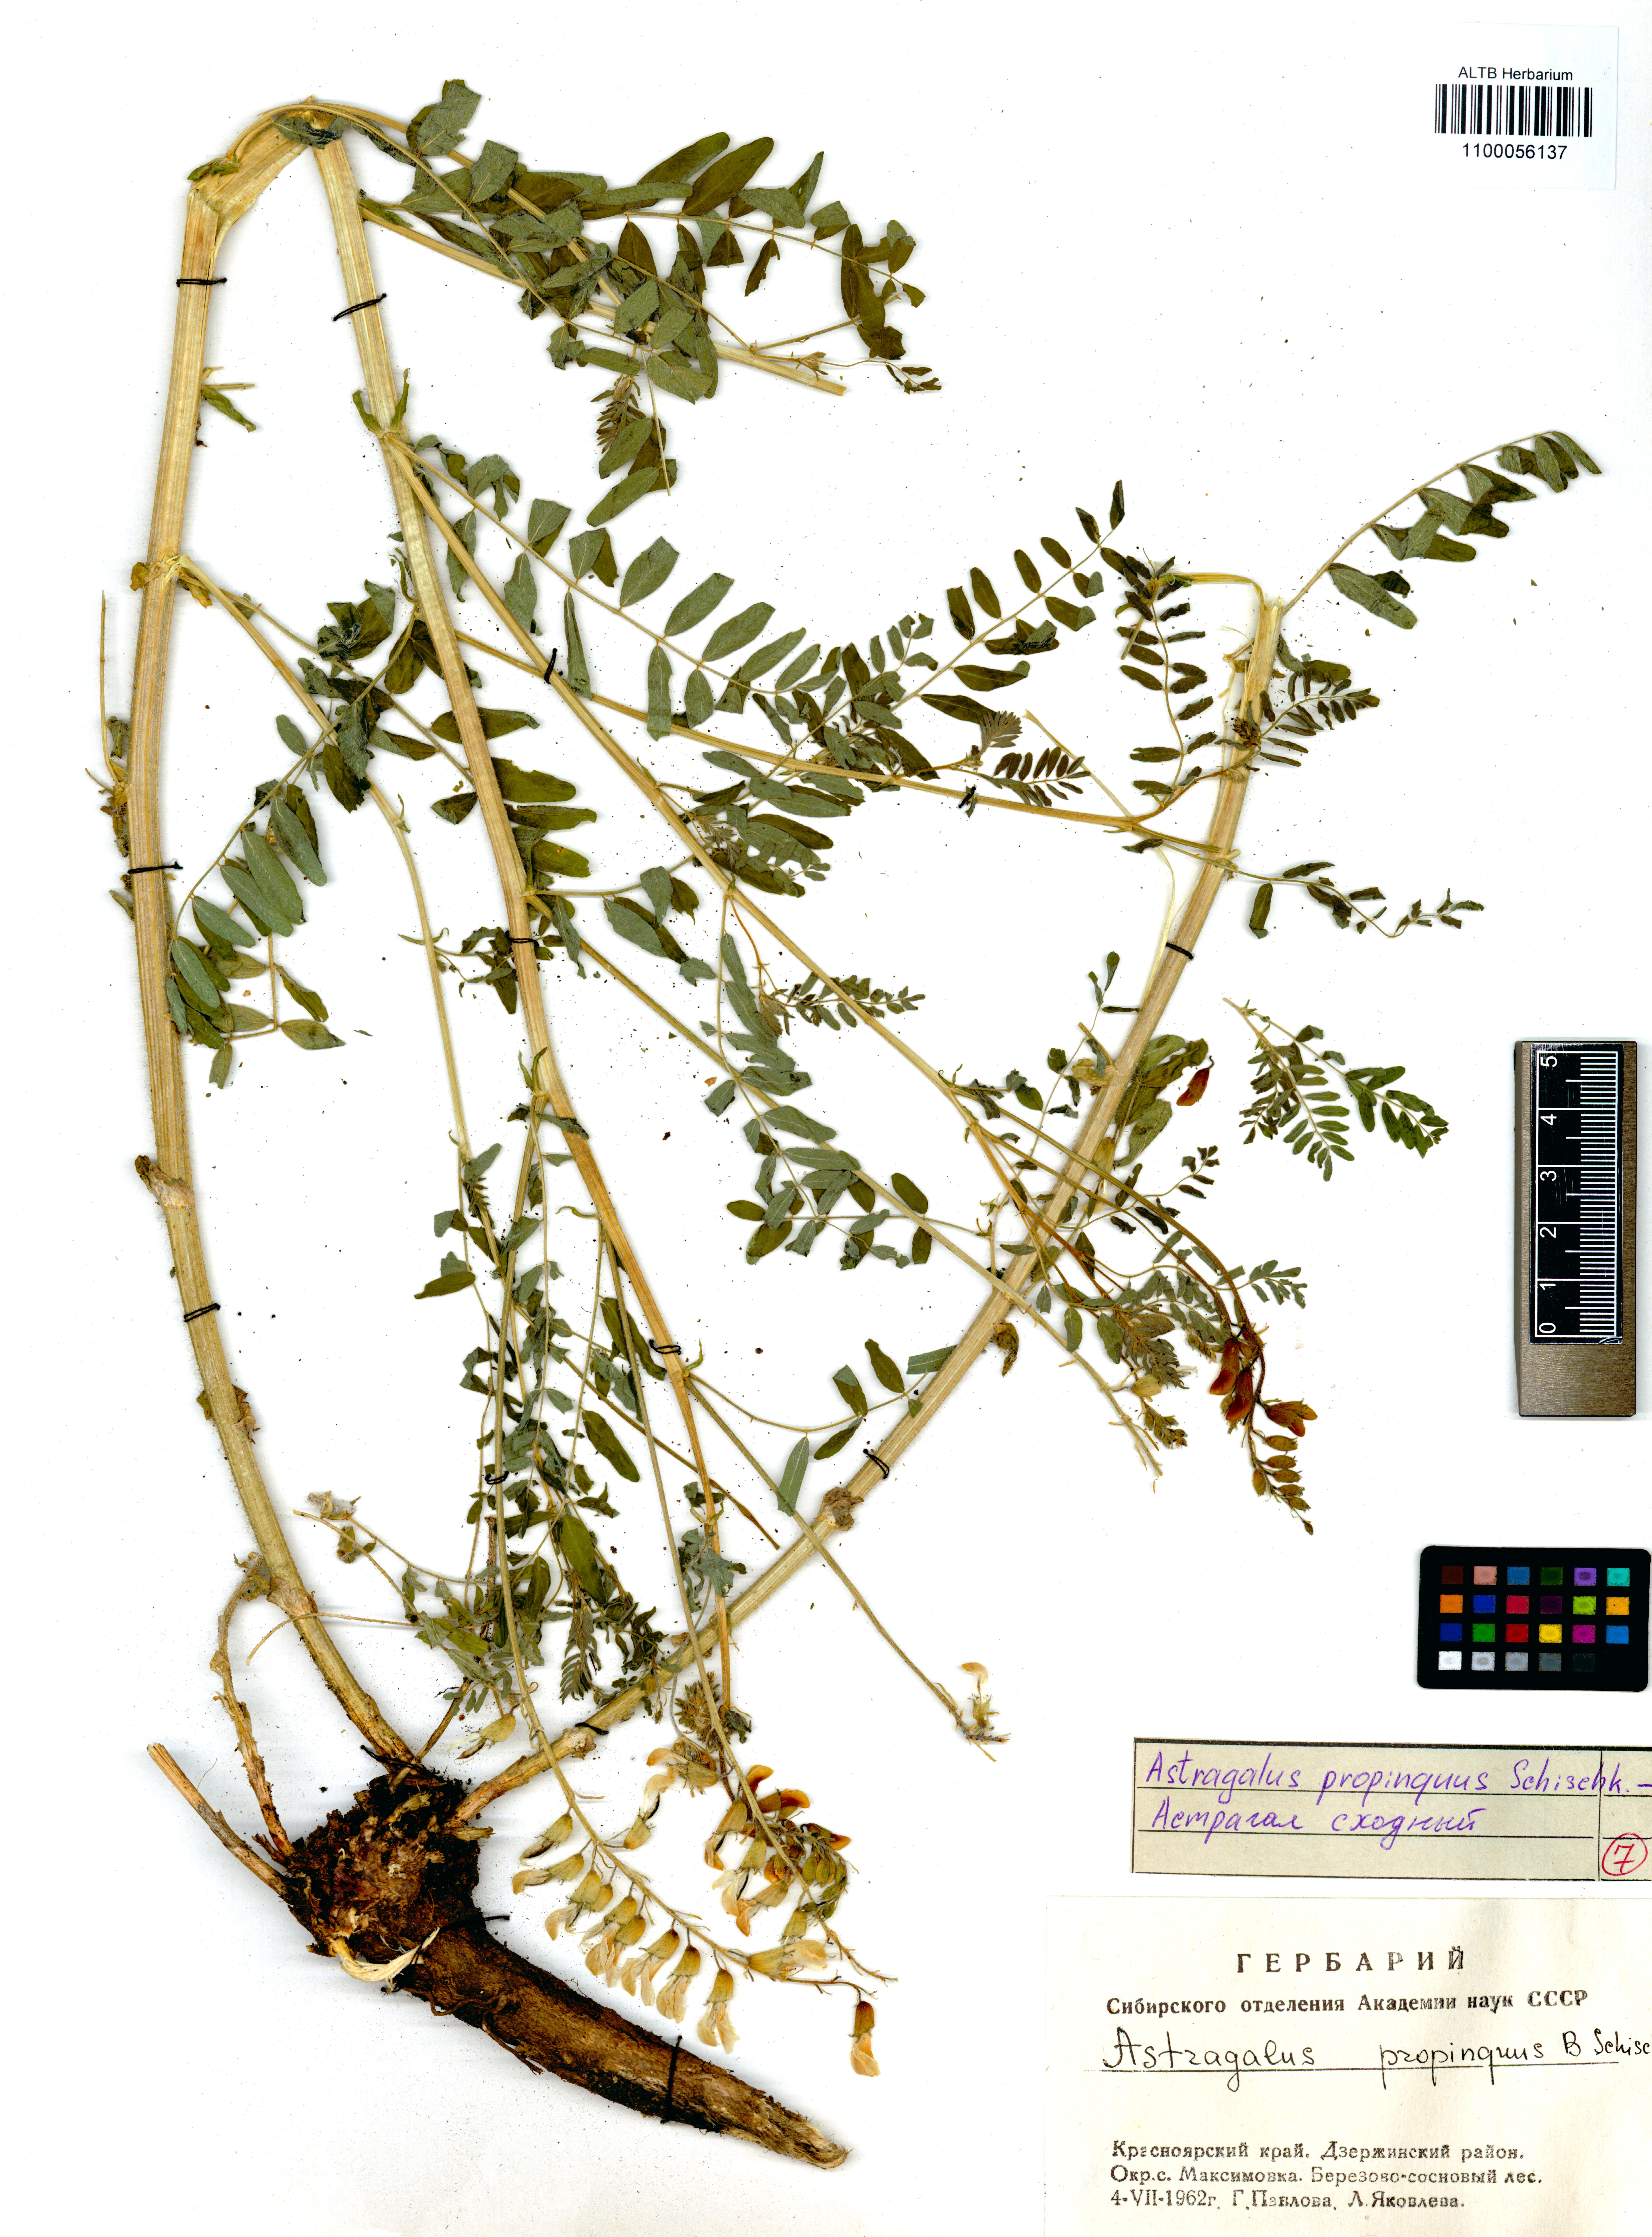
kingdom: Plantae
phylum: Tracheophyta
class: Magnoliopsida
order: Fabales
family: Fabaceae
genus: Astragalus
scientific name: Astragalus mongholicus
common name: Membranous milk-vetch
